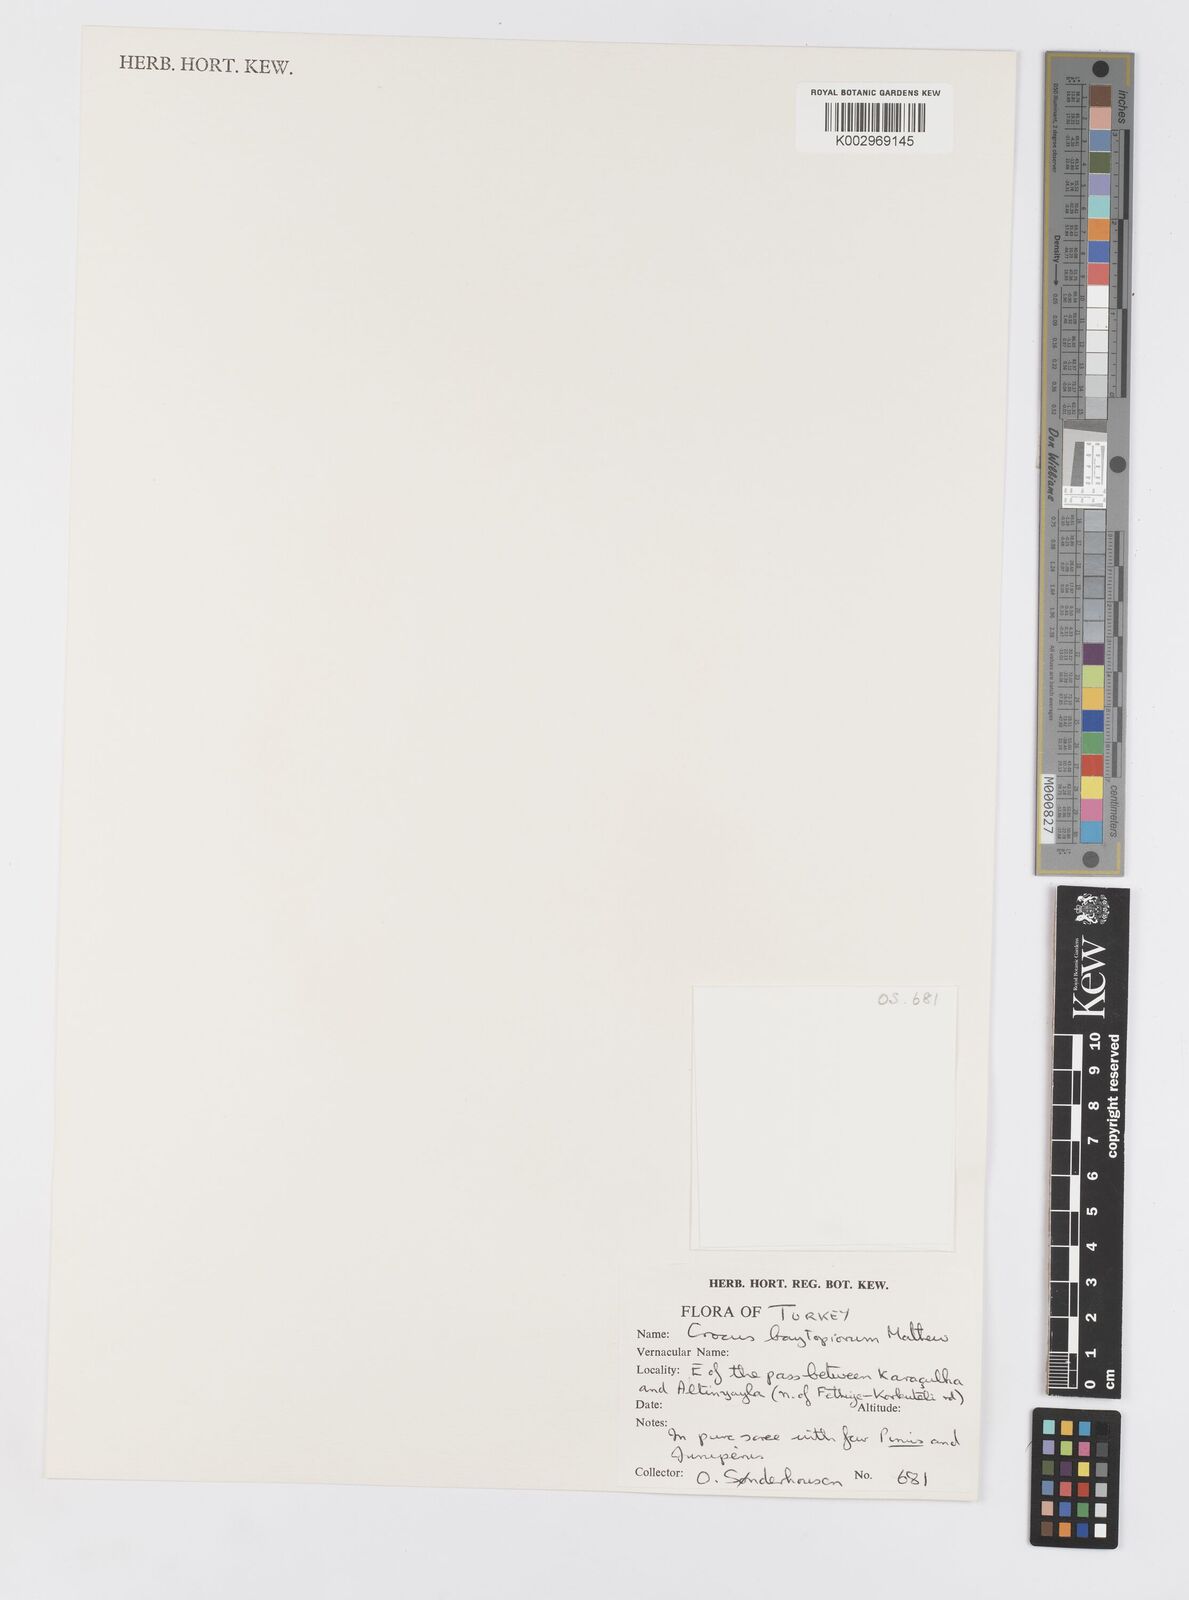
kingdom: Plantae
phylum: Tracheophyta
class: Liliopsida
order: Asparagales
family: Iridaceae
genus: Crocus
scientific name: Crocus baytopiorum
